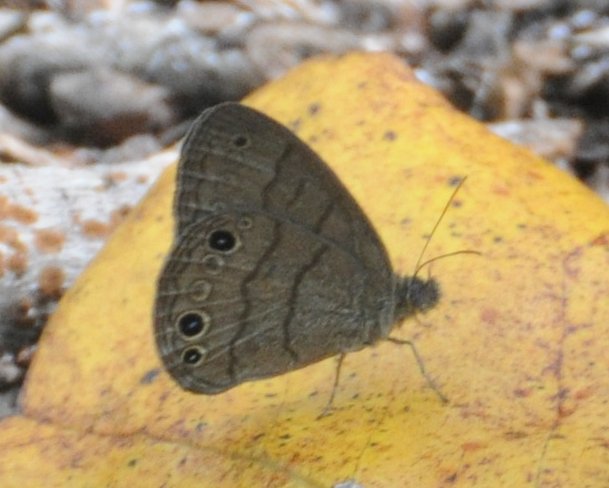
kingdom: Animalia
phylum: Arthropoda
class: Insecta
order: Lepidoptera
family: Nymphalidae
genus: Hermeuptychia
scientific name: Hermeuptychia hermes
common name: Carolina Satyr
